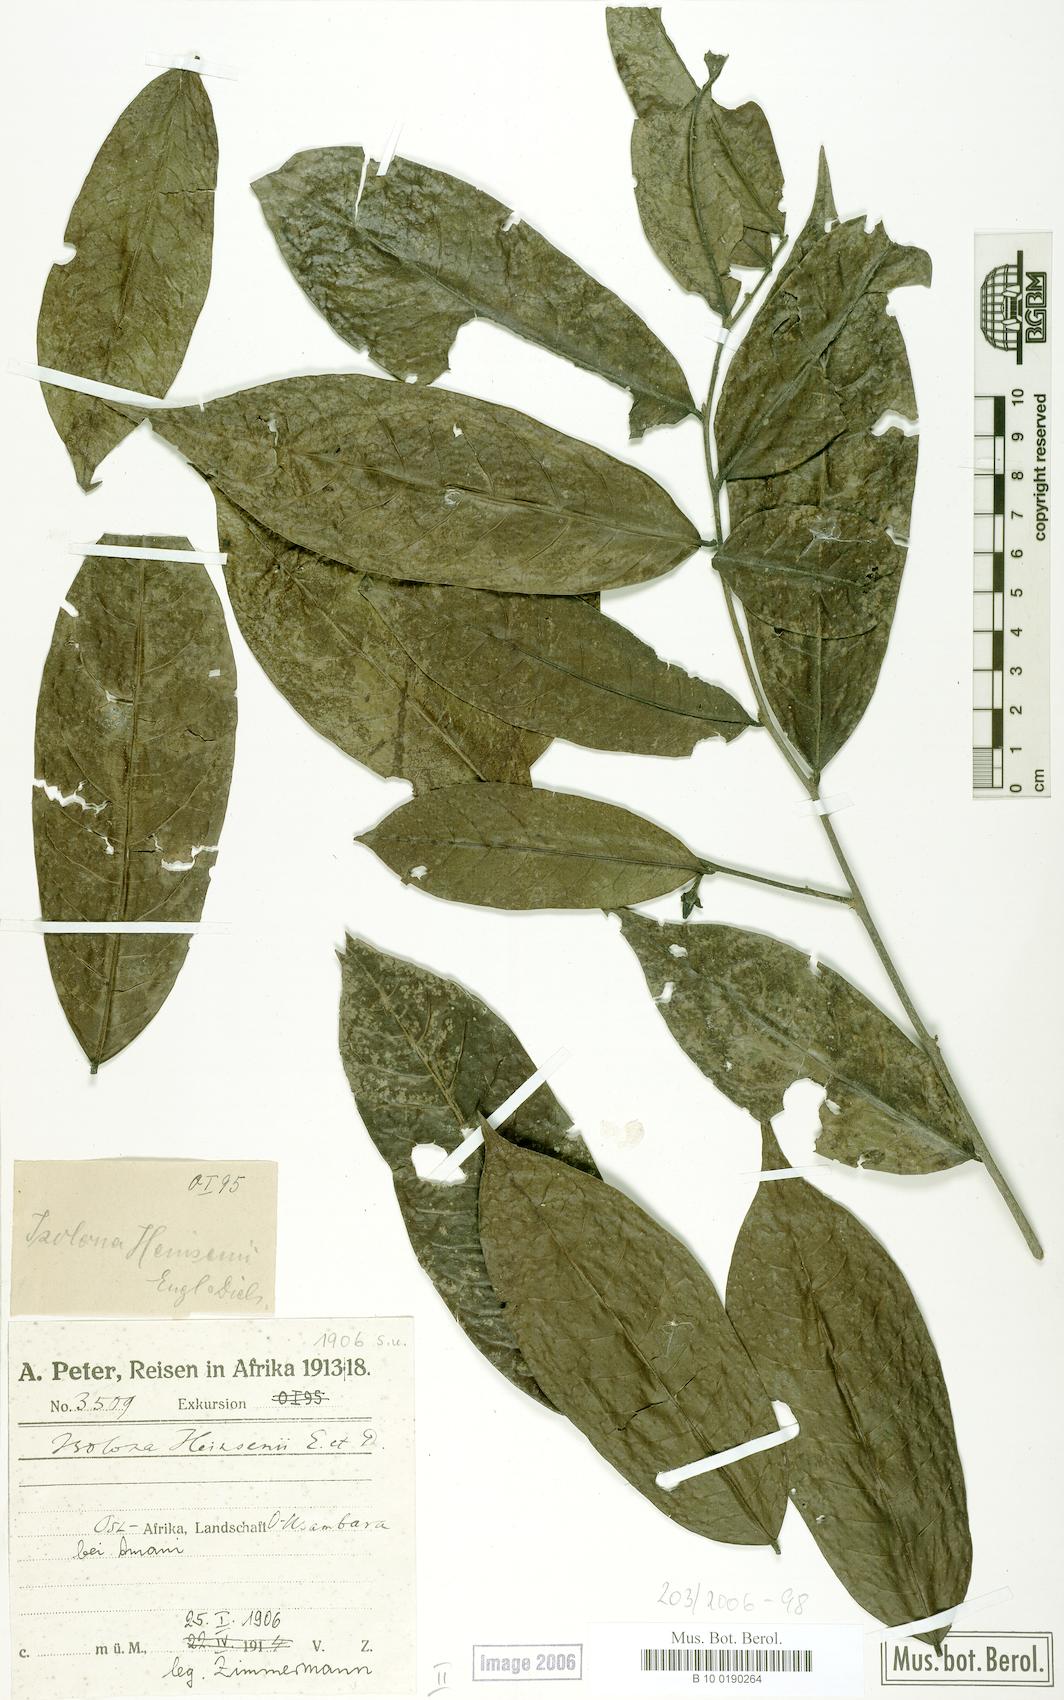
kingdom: Plantae
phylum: Tracheophyta
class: Magnoliopsida
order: Magnoliales
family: Annonaceae
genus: Isolona
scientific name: Isolona heinsenii
